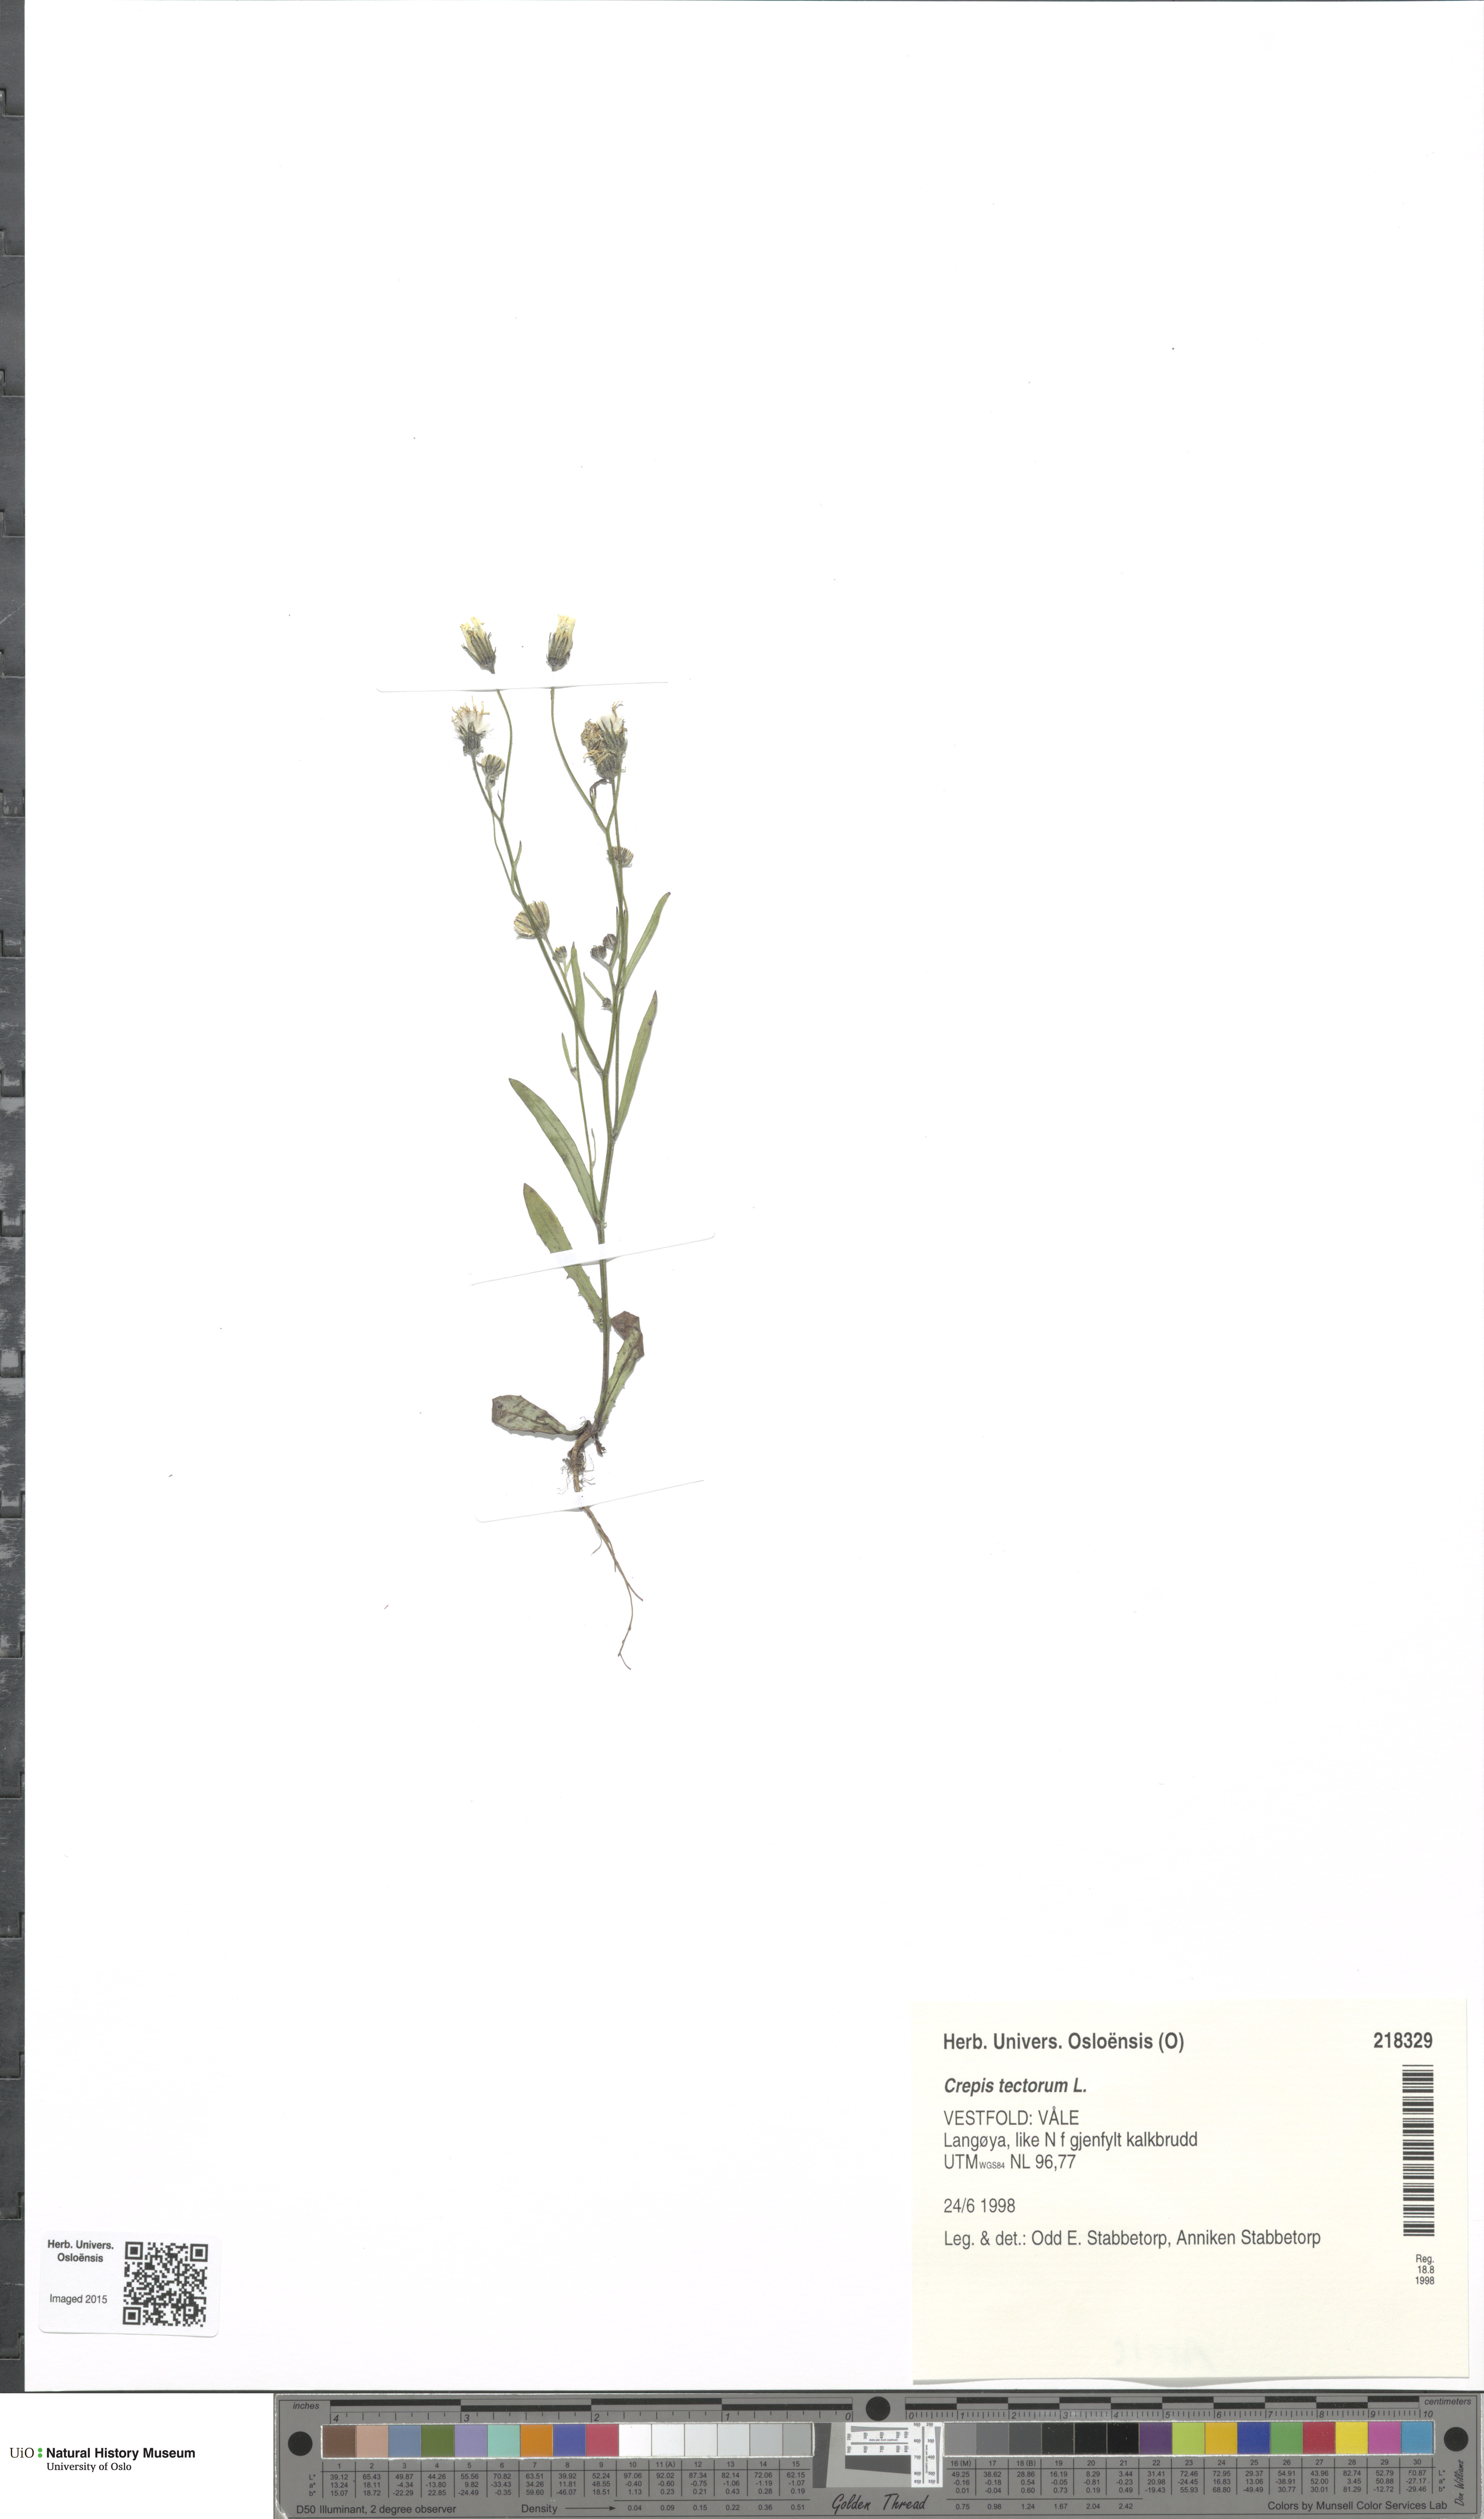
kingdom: Plantae
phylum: Tracheophyta
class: Magnoliopsida
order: Asterales
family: Asteraceae
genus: Crepis
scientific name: Crepis tectorum
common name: Narrow-leaved hawk's-beard
